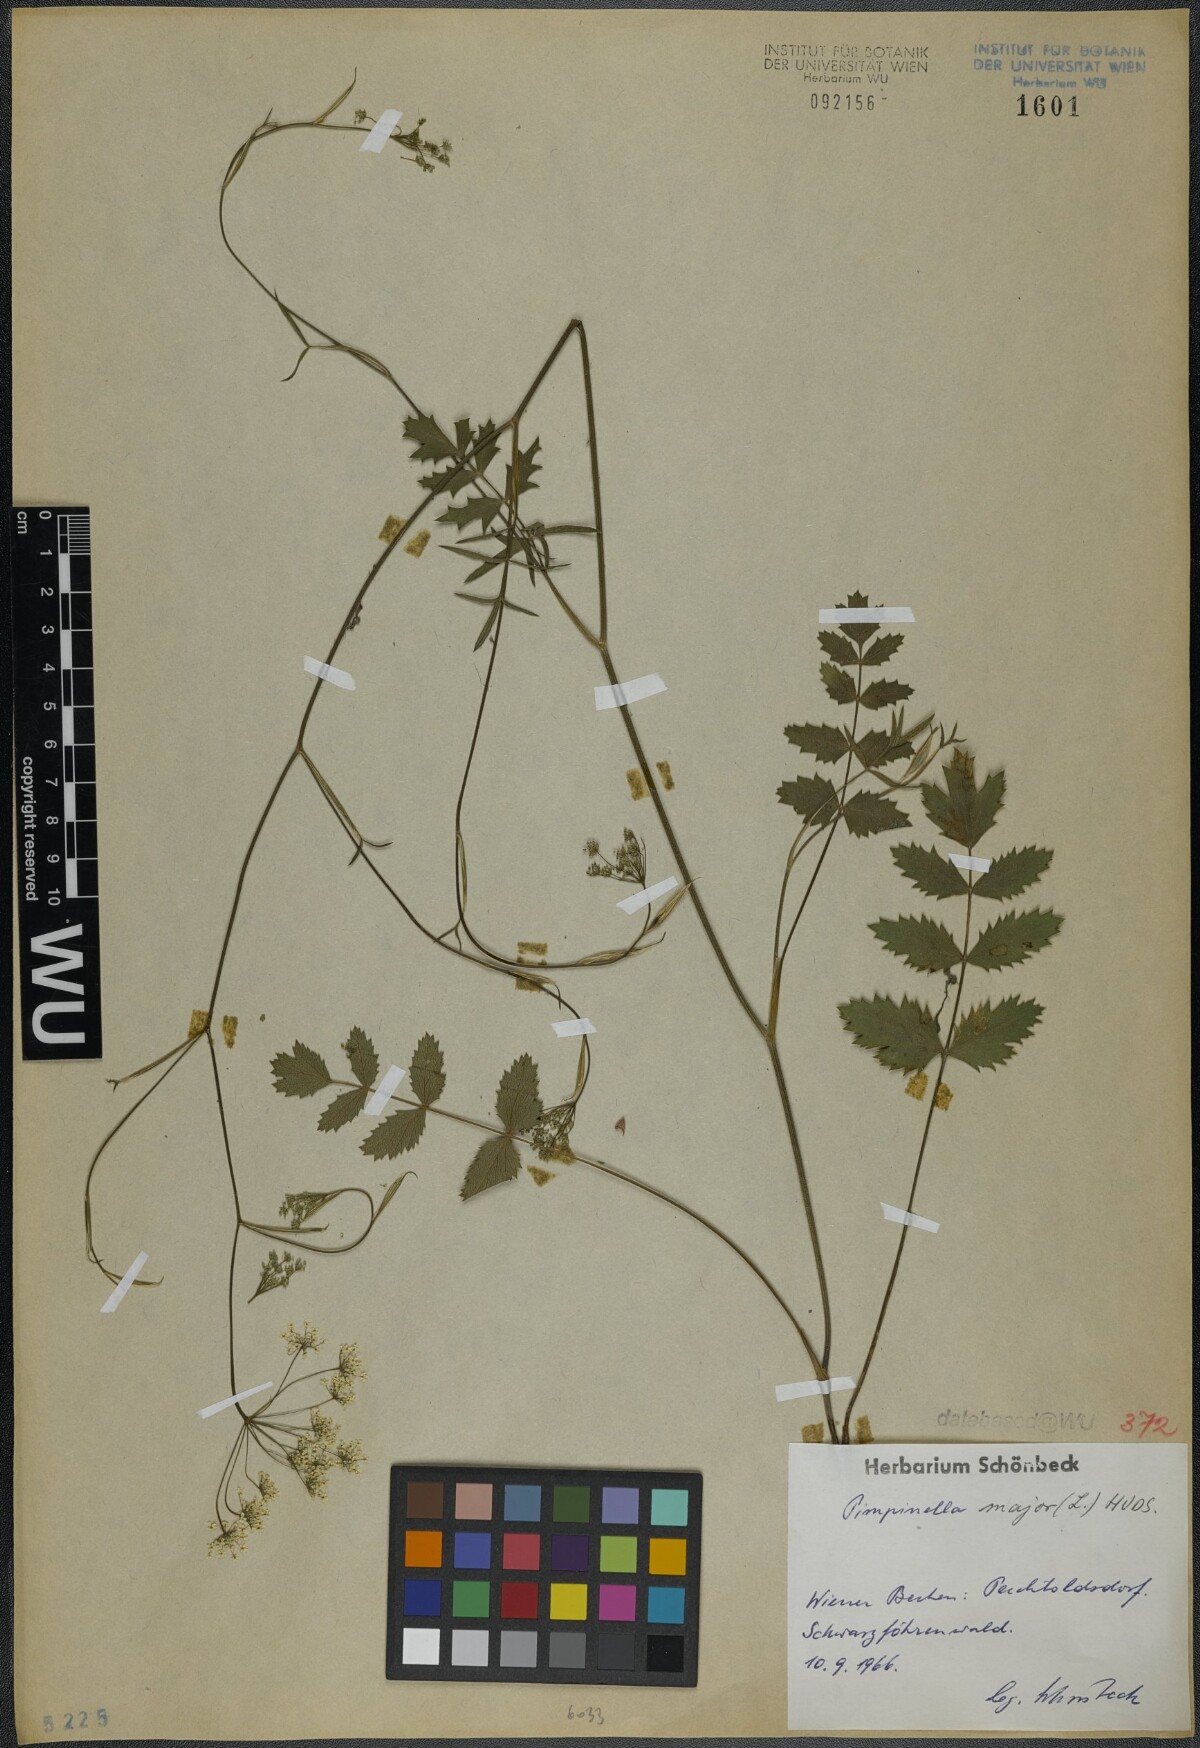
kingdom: Plantae
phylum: Tracheophyta
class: Magnoliopsida
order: Apiales
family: Apiaceae
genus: Pimpinella
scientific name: Pimpinella major
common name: Greater burnet-saxifrage
